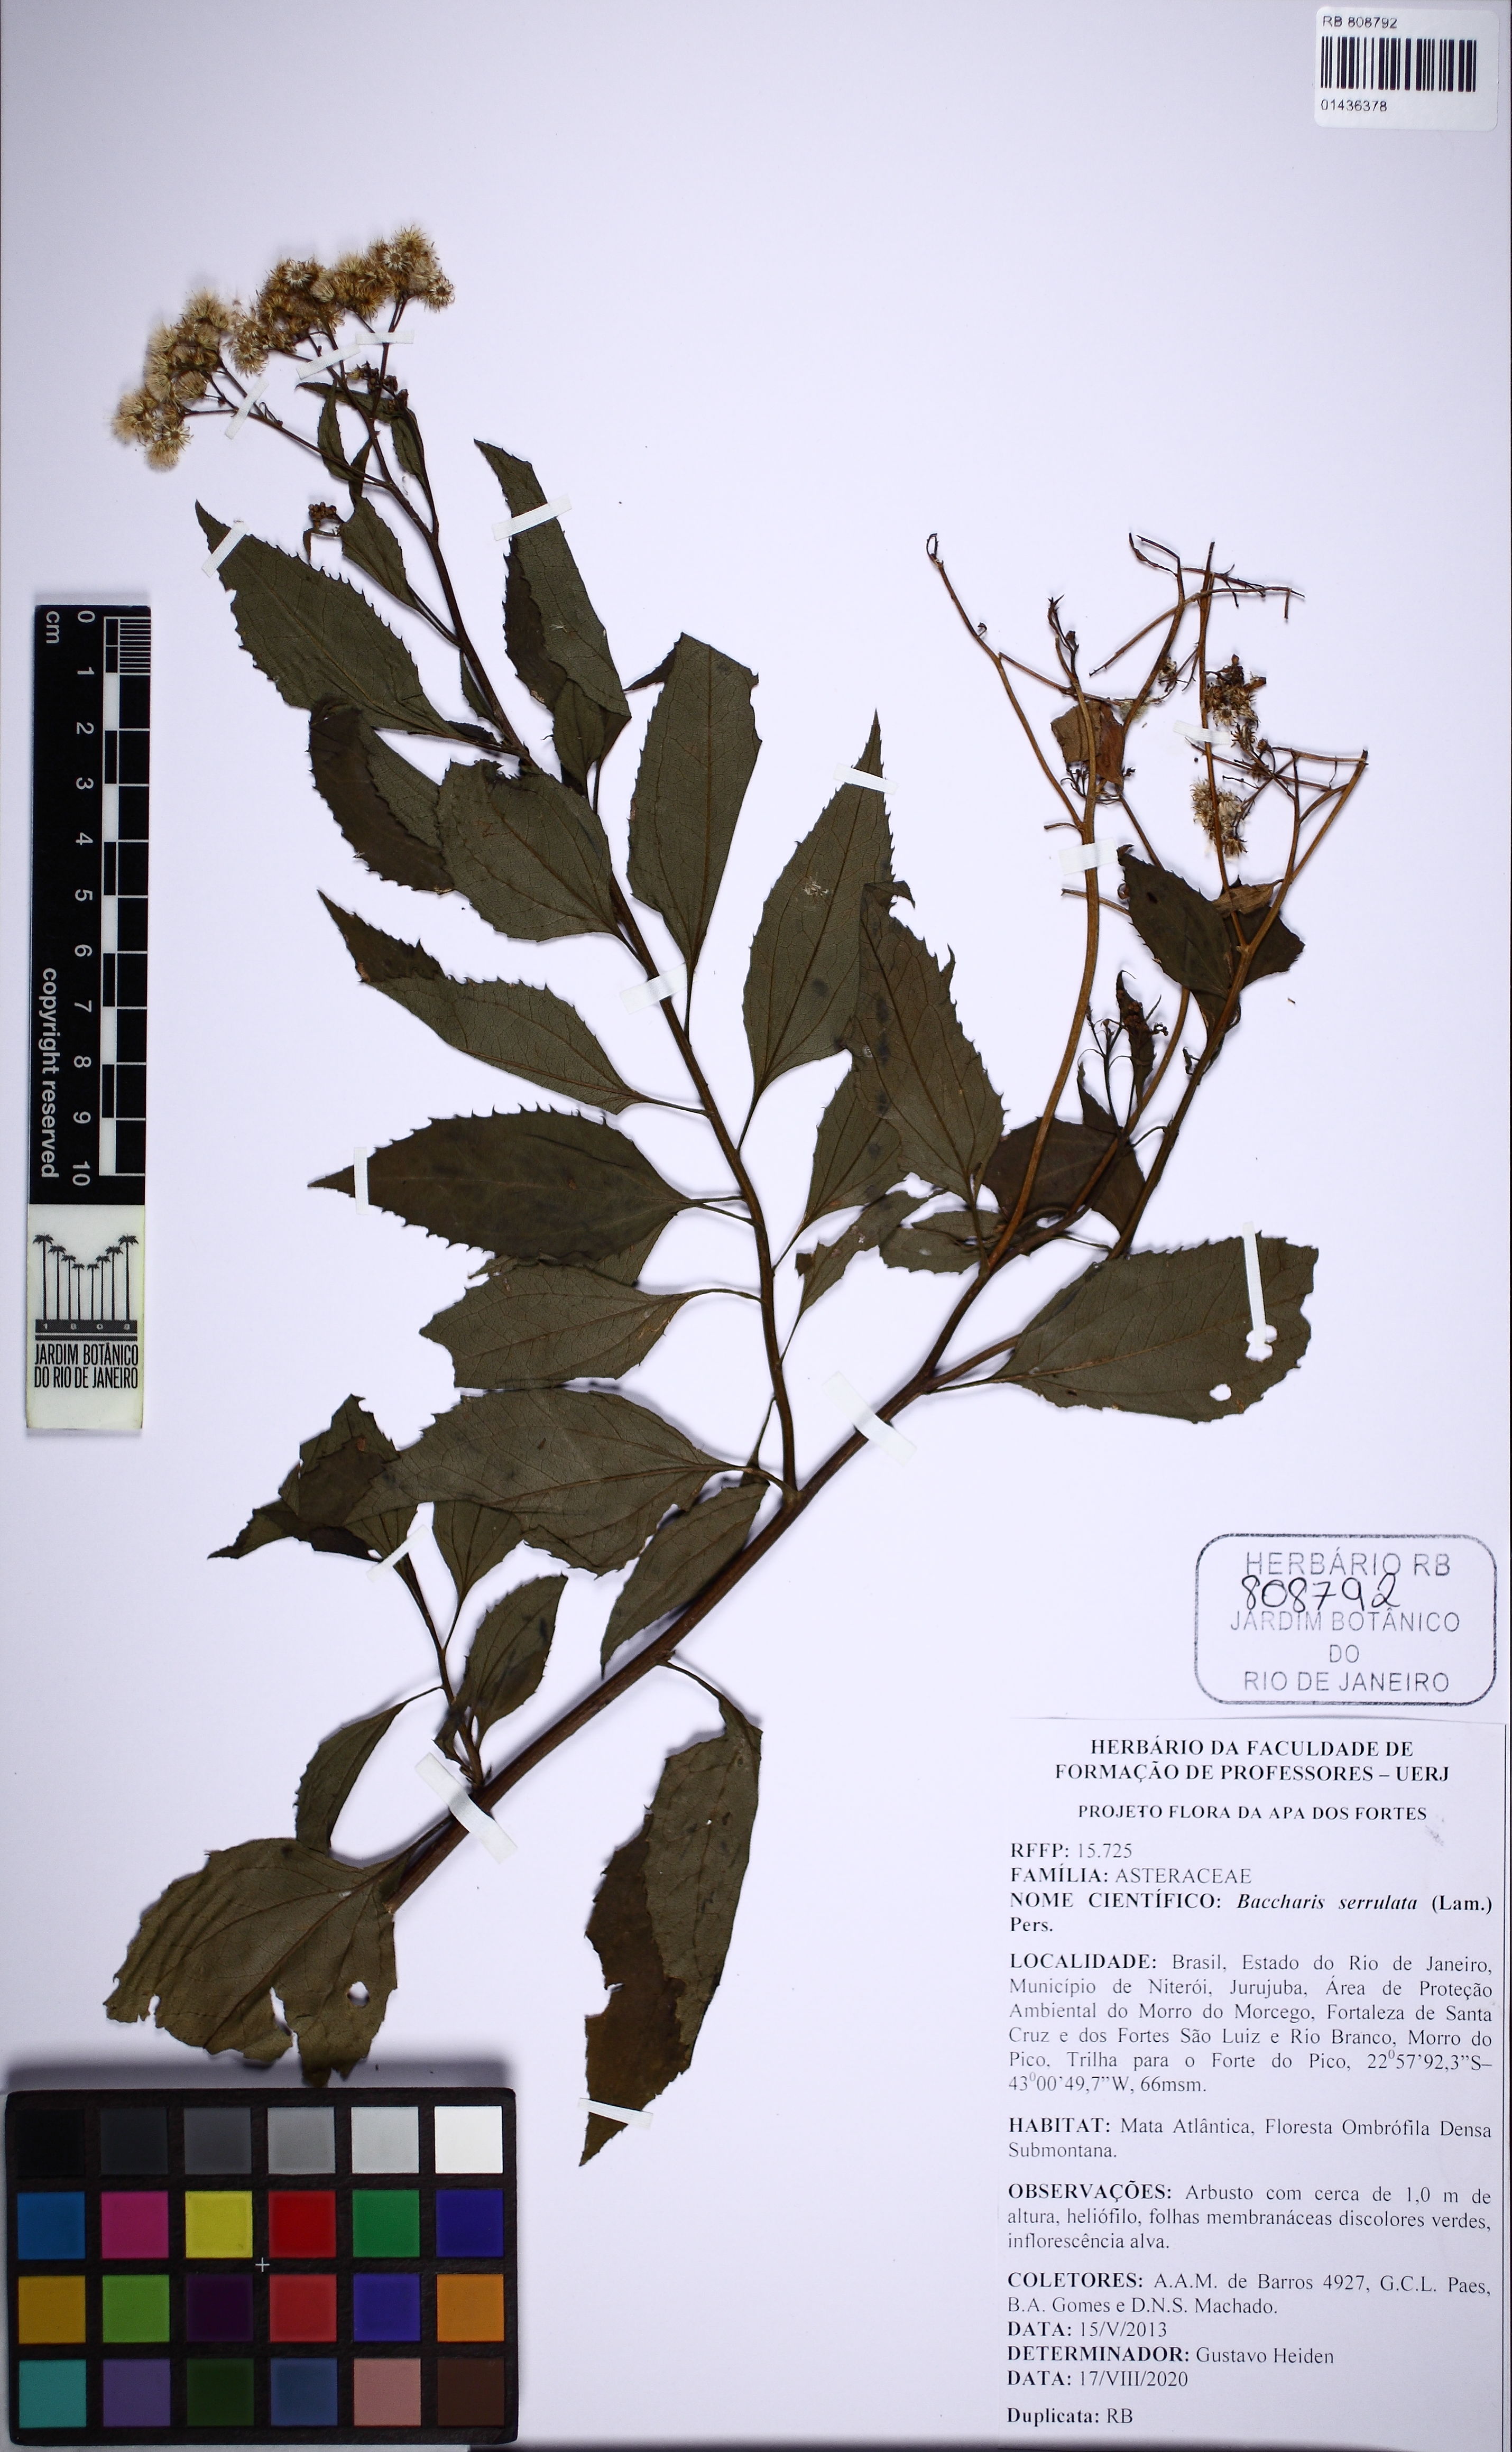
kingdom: Plantae
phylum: Tracheophyta
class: Magnoliopsida
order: Asterales
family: Asteraceae
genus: Baccharis
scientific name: Baccharis serrulata
